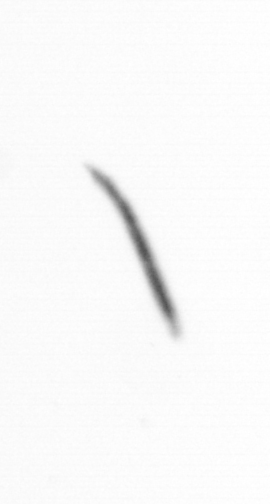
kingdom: Chromista
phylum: Ochrophyta
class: Bacillariophyceae
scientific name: Bacillariophyceae
